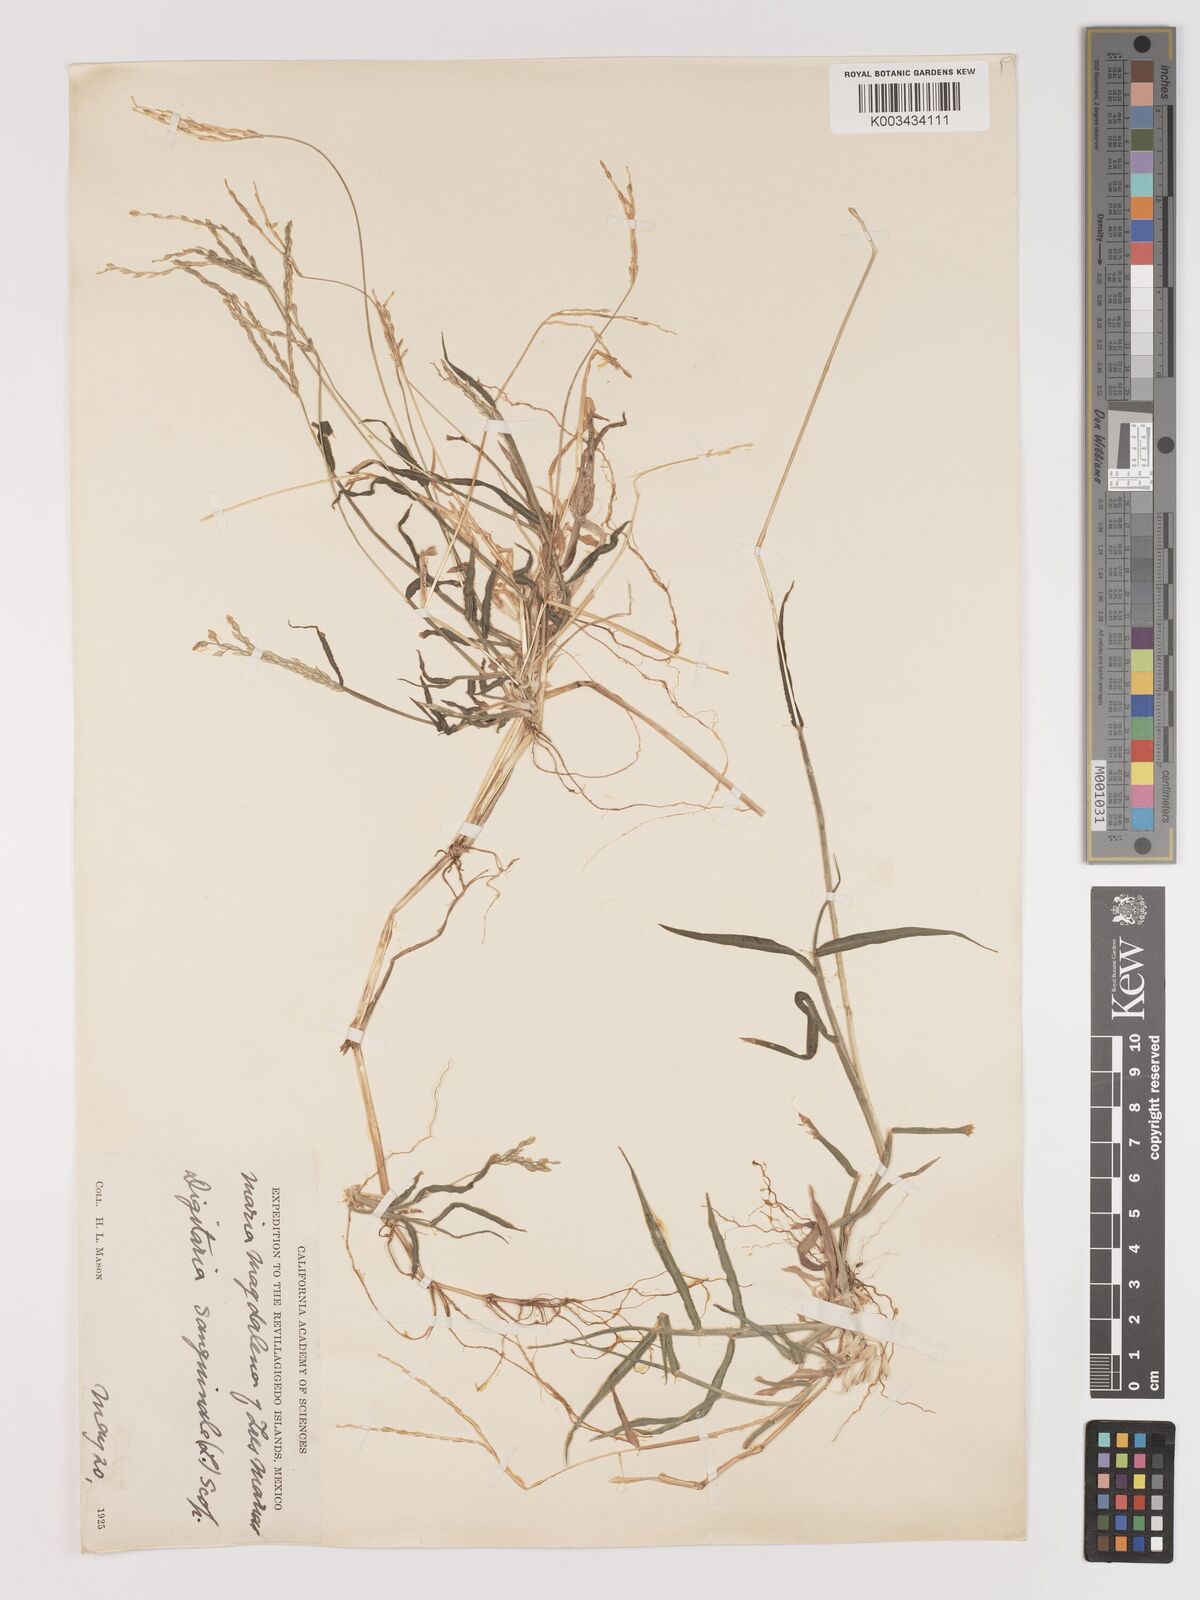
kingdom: Plantae
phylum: Tracheophyta
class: Liliopsida
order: Poales
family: Poaceae
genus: Digitaria
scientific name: Digitaria ciliaris
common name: Tropical finger-grass
